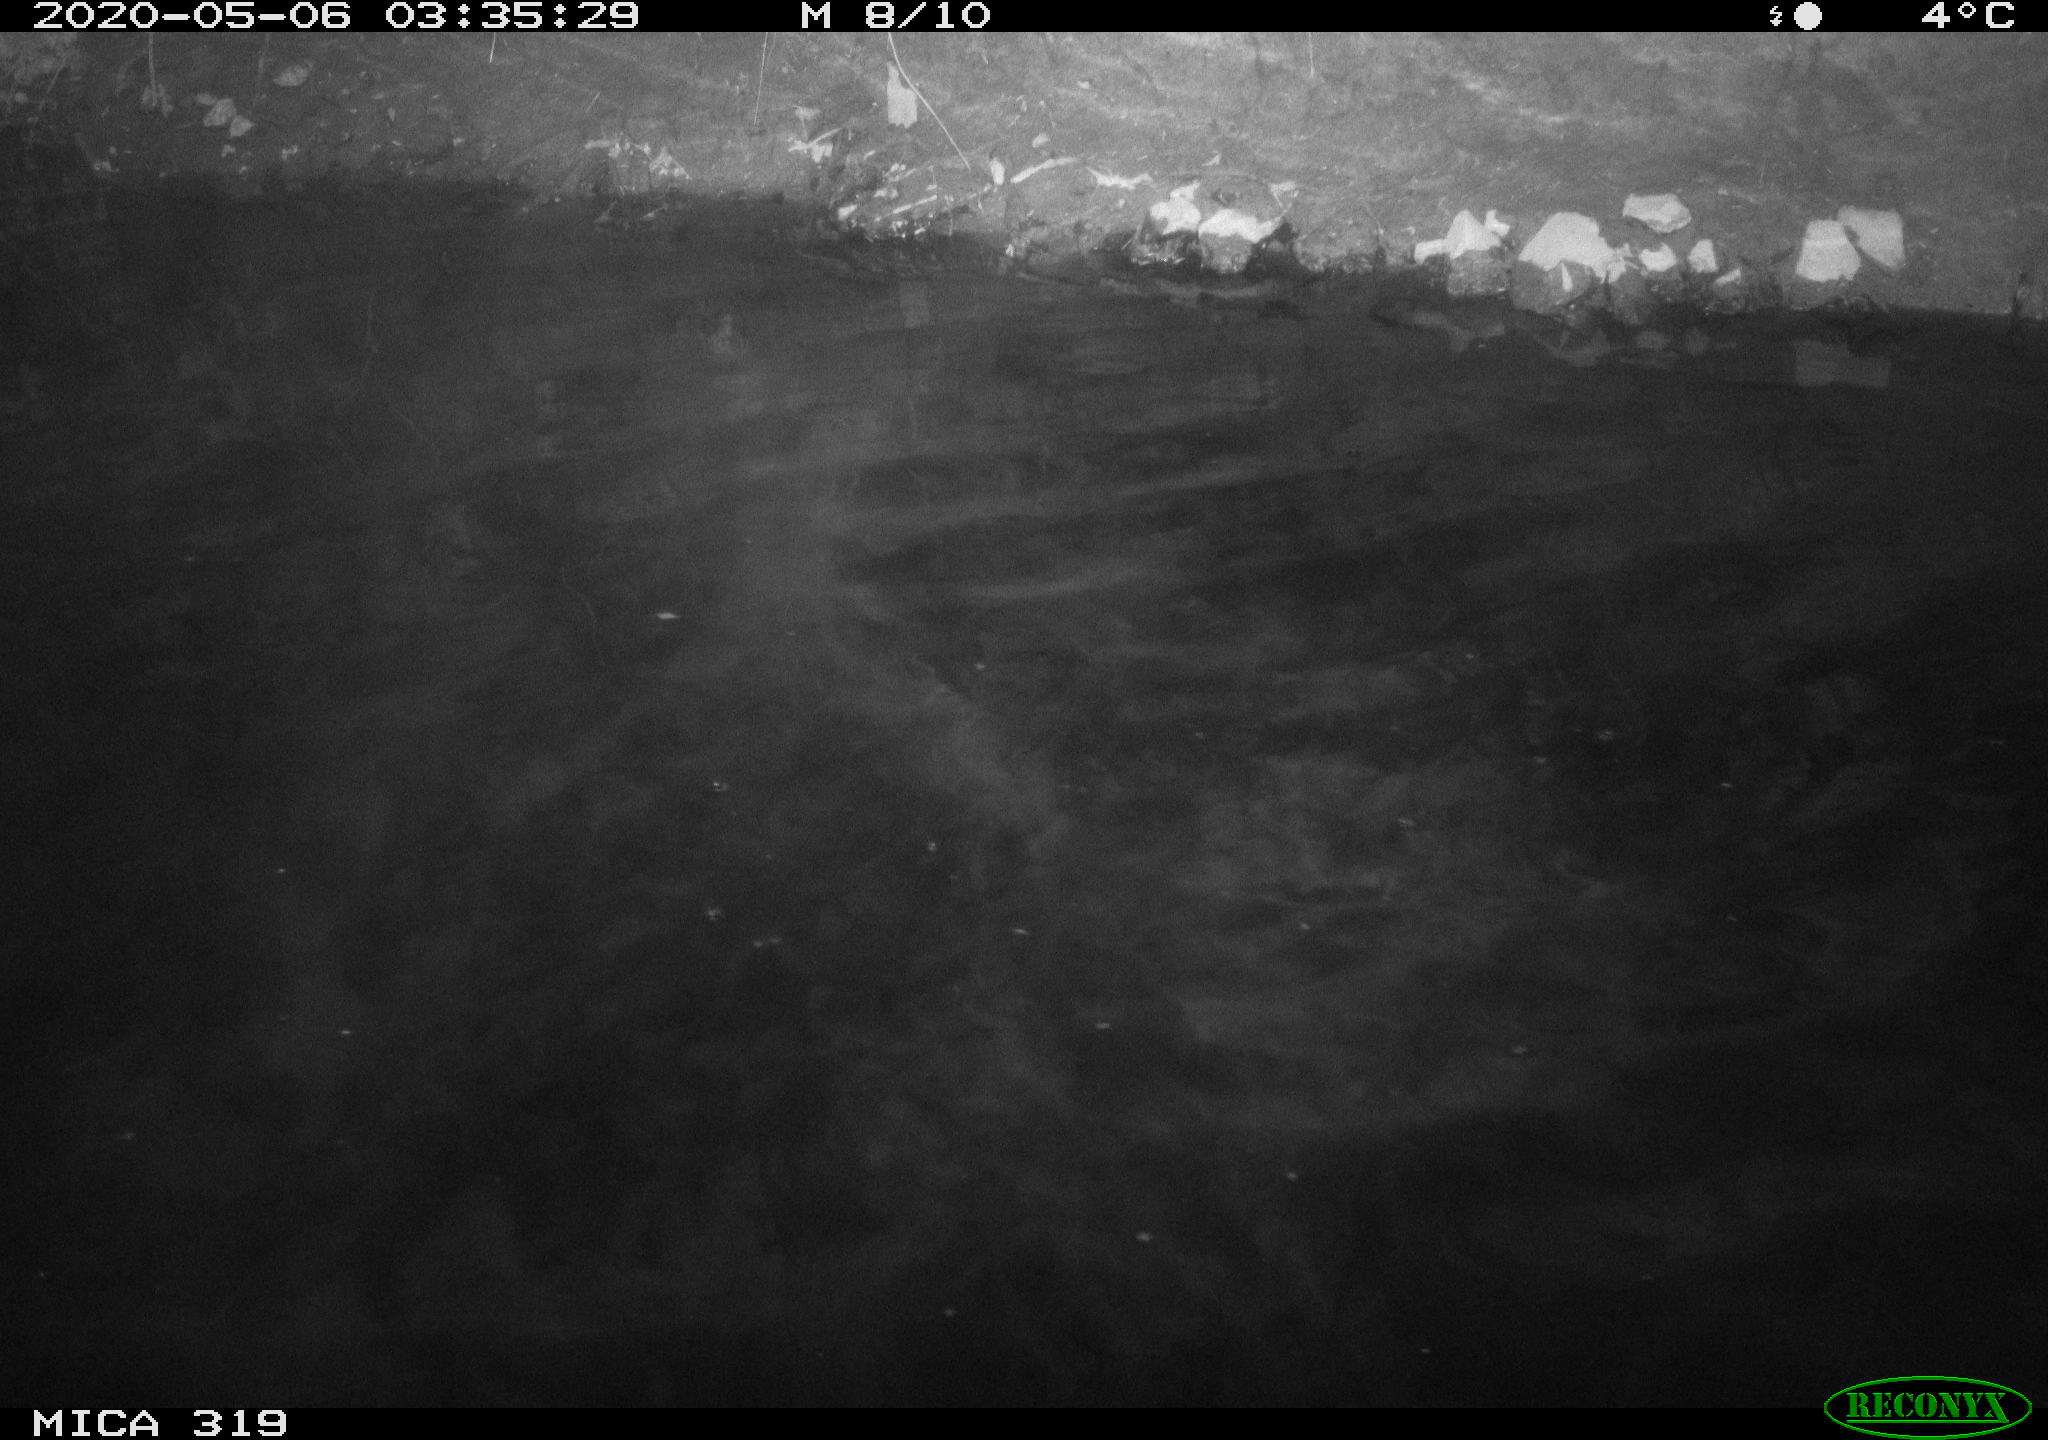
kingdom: Animalia
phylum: Chordata
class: Aves
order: Anseriformes
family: Anatidae
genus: Anas
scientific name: Anas platyrhynchos
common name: Mallard
